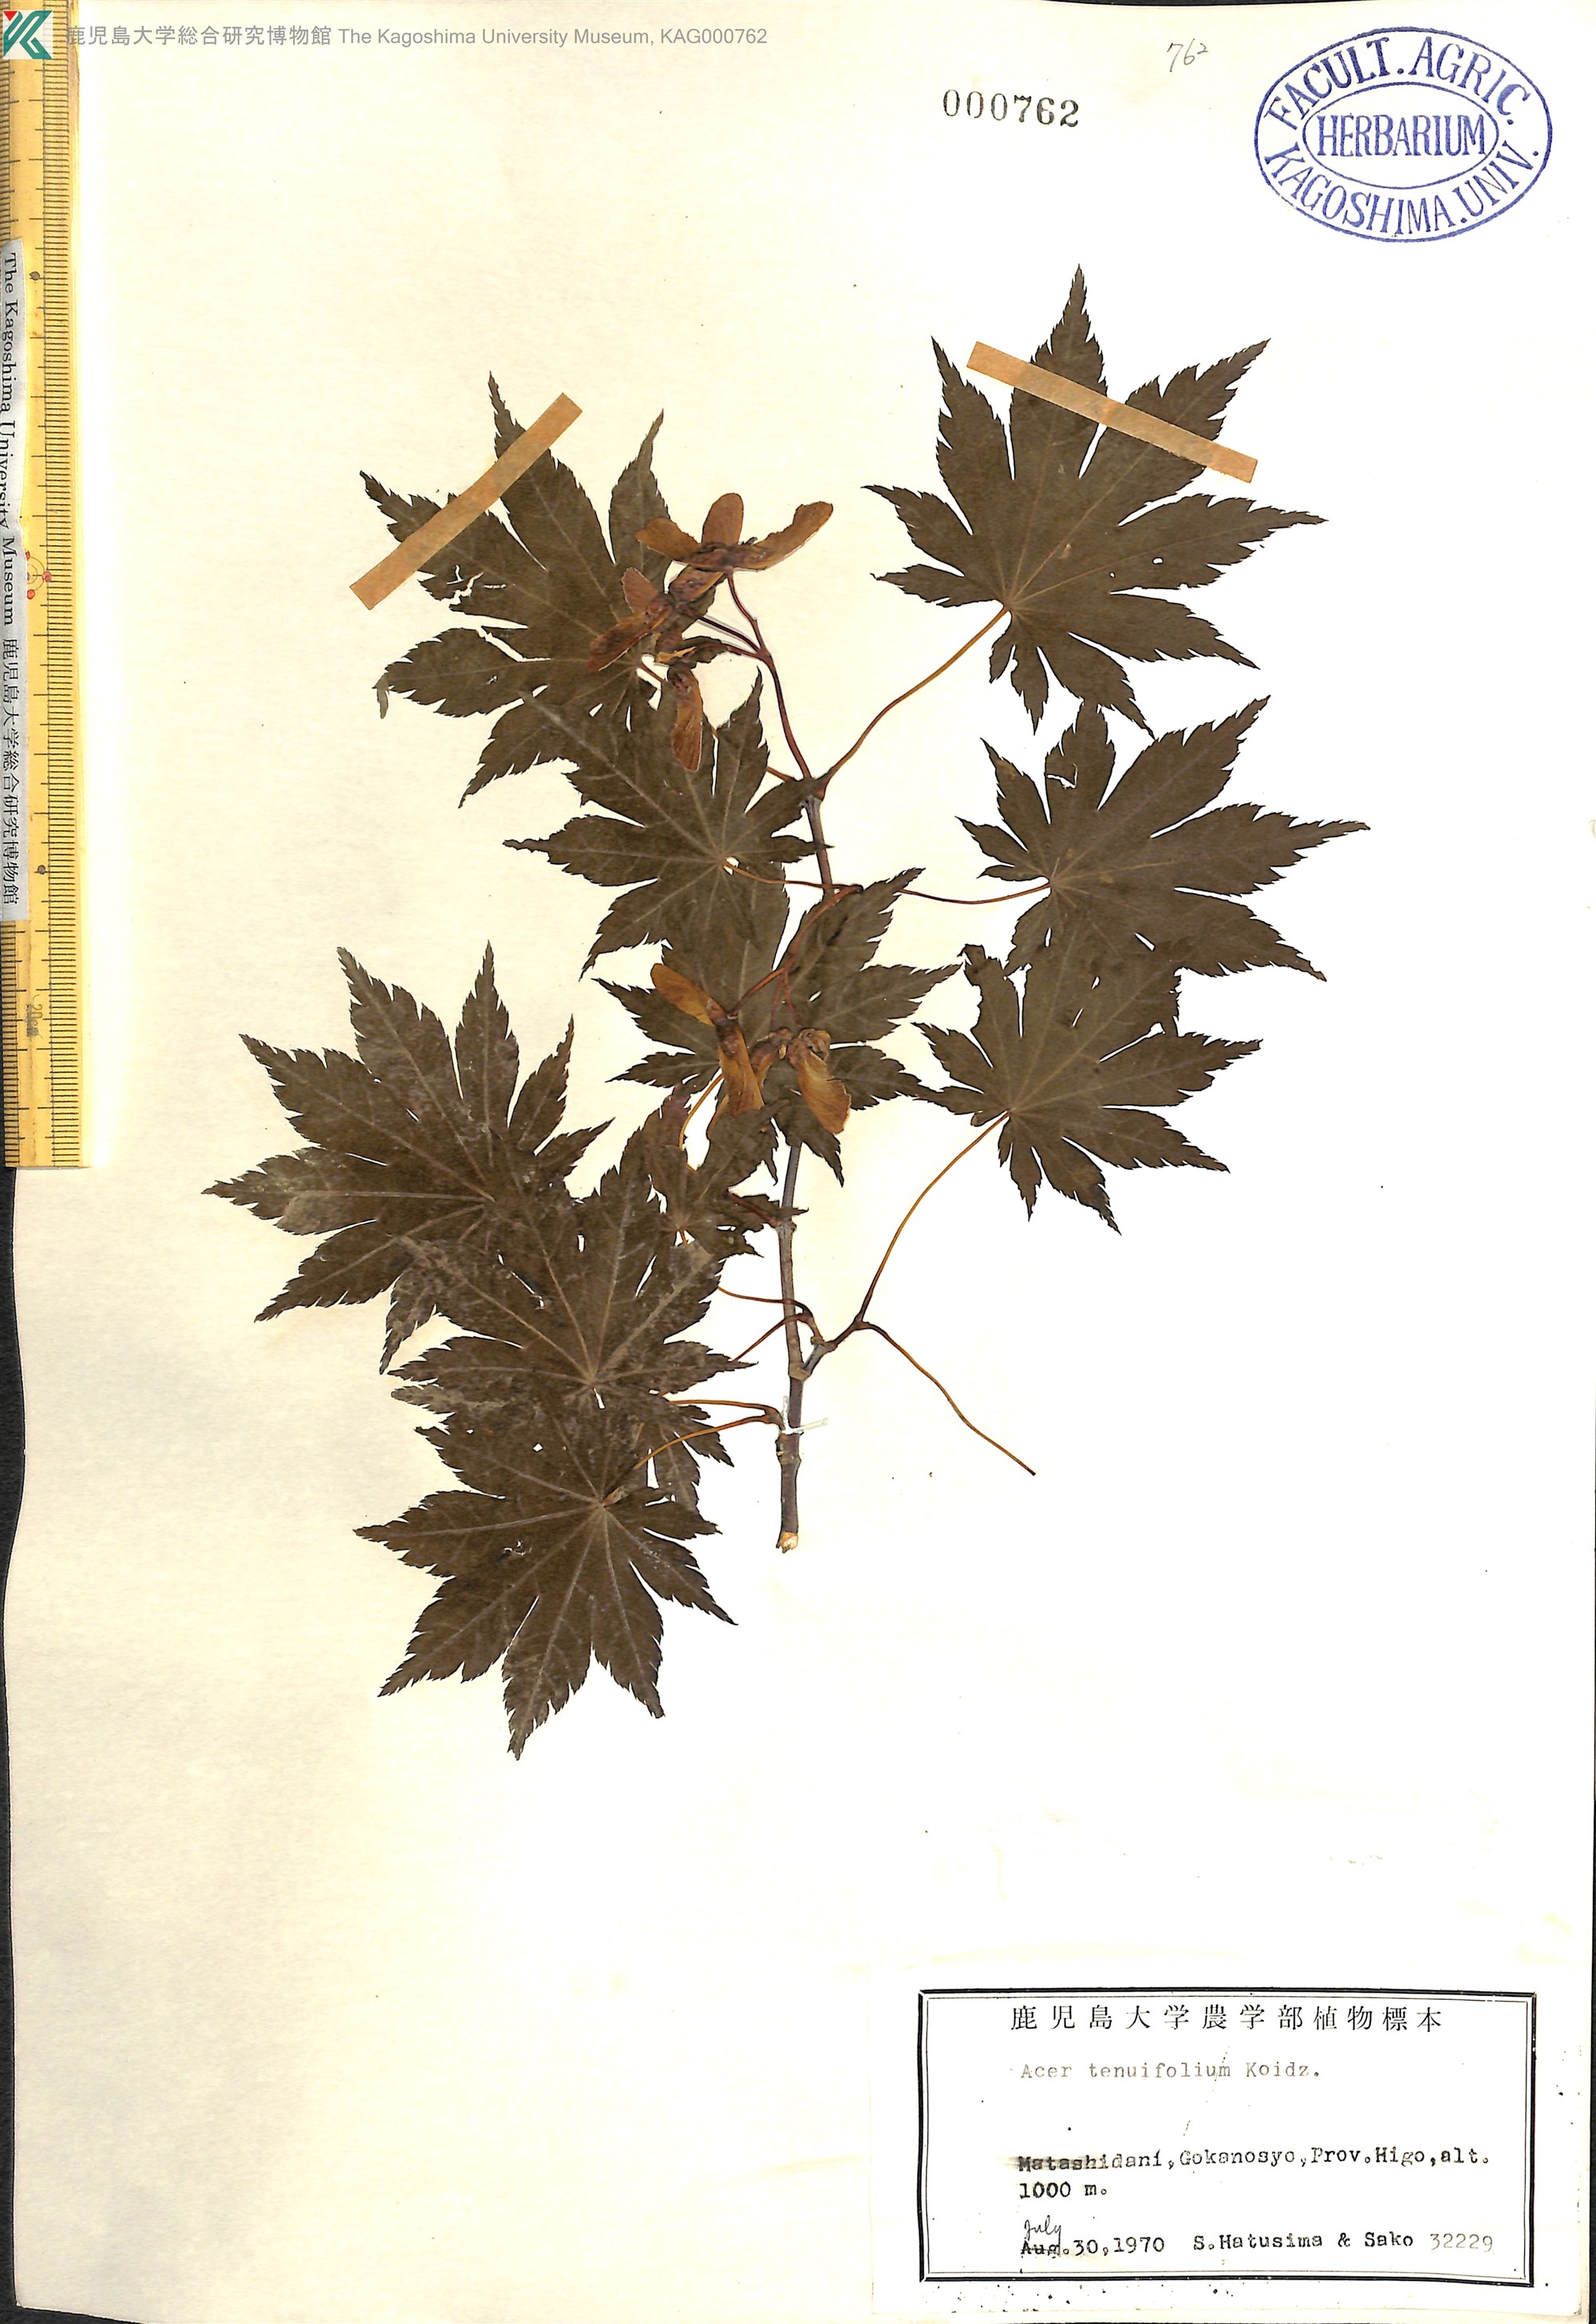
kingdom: Plantae
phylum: Tracheophyta
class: Magnoliopsida
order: Sapindales
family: Sapindaceae
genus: Acer
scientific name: Acer shirasawanum
